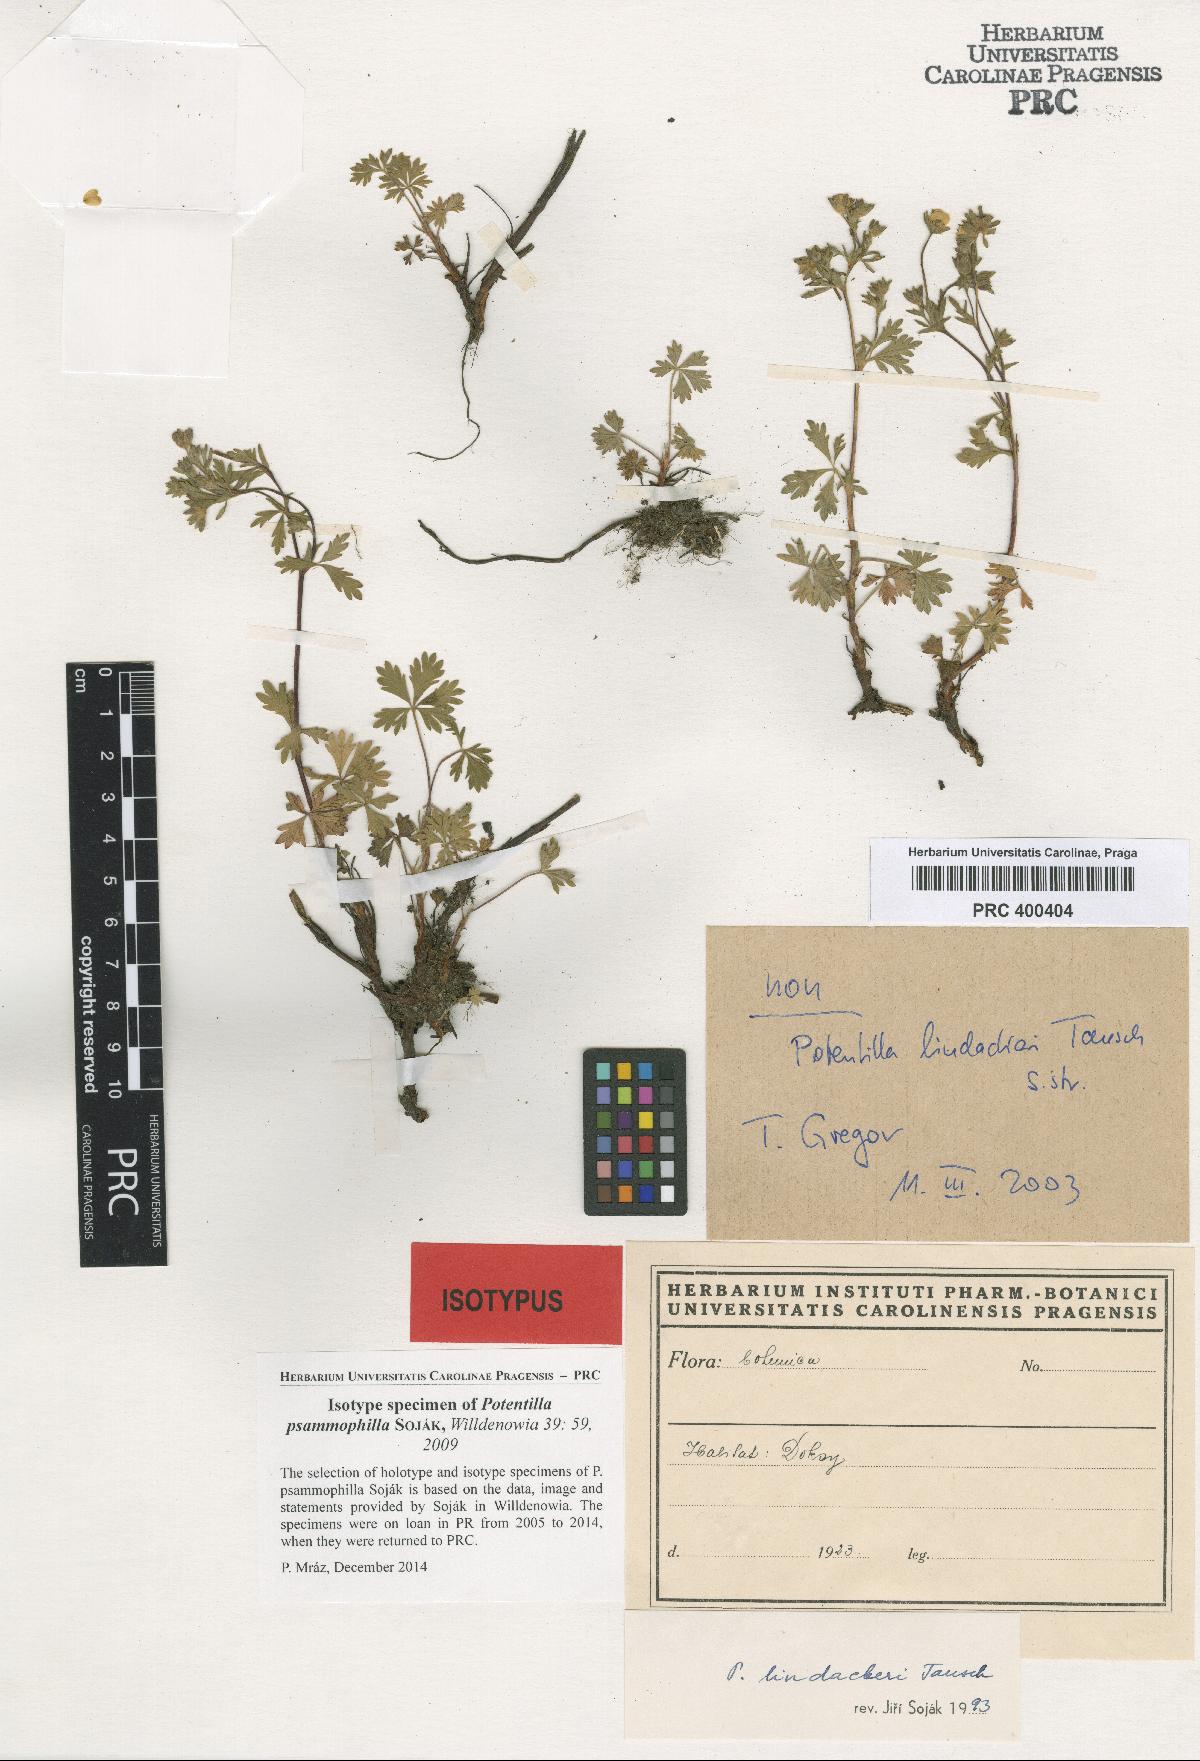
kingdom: Plantae
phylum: Tracheophyta
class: Magnoliopsida
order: Rosales
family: Rosaceae
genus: Potentilla
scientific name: Potentilla psammophila
